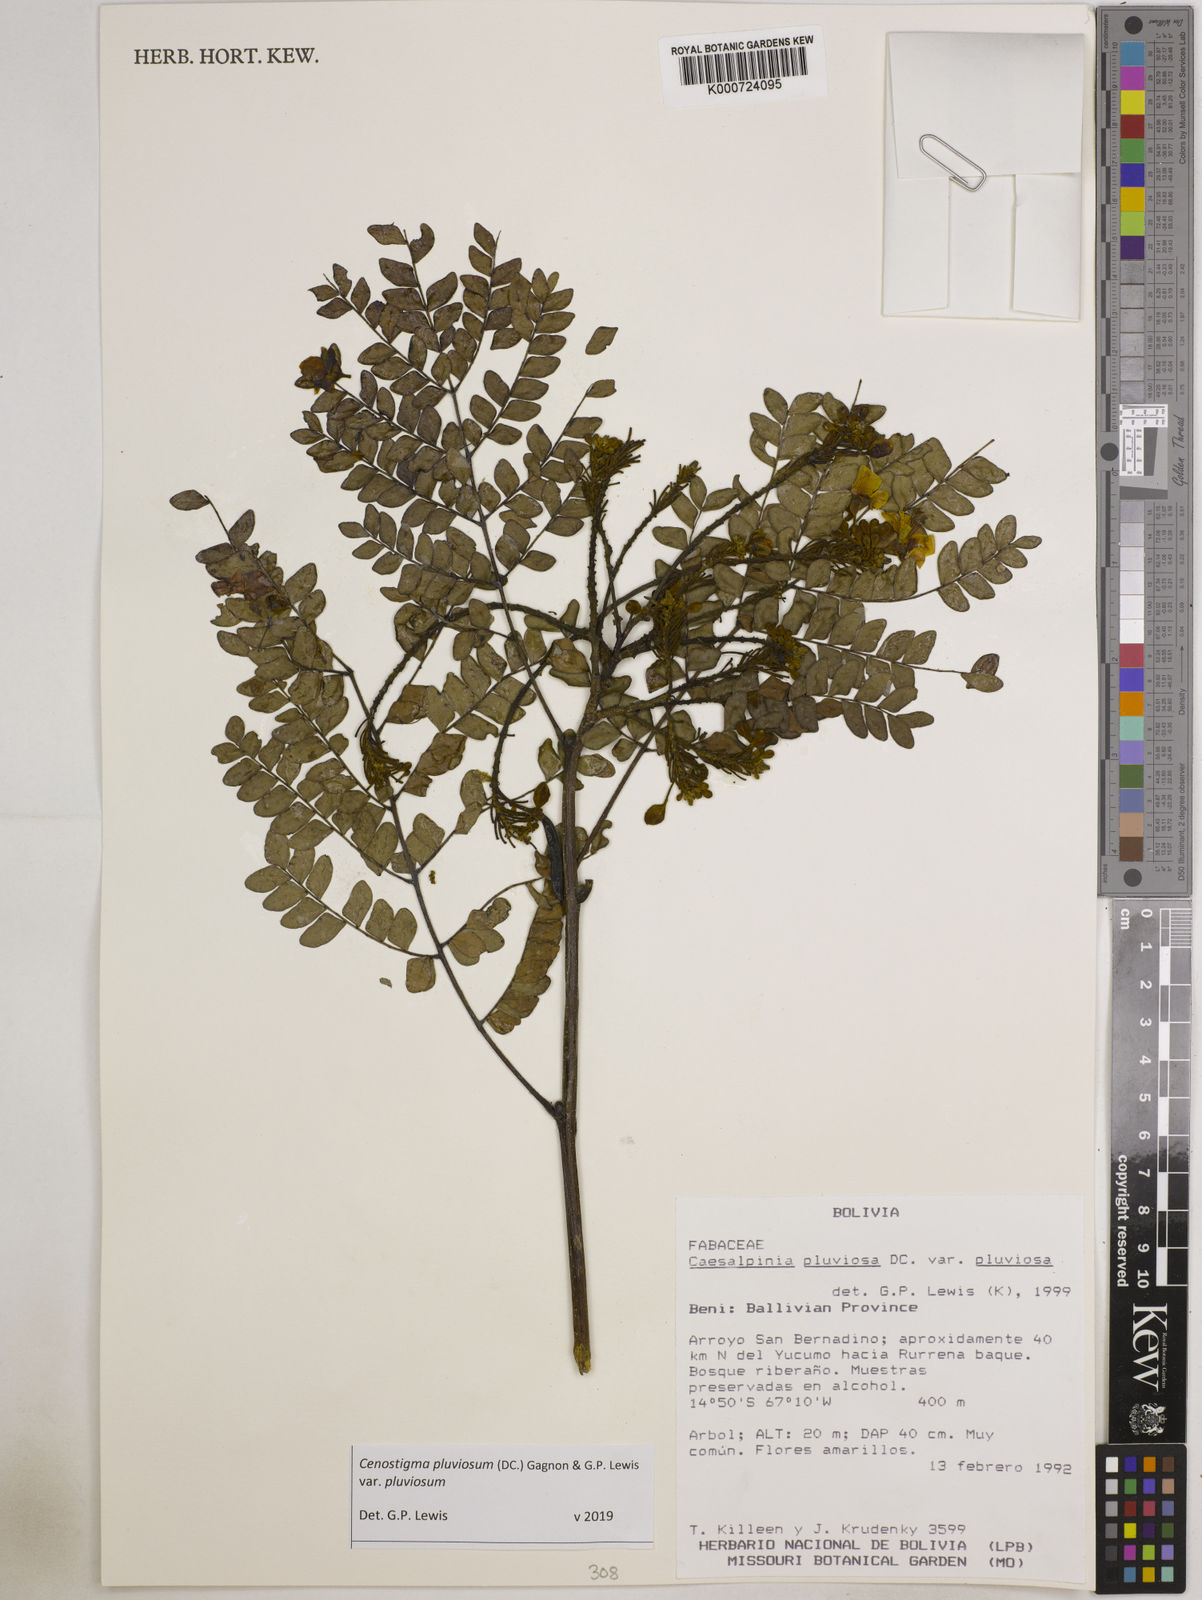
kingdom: Plantae
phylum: Tracheophyta
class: Magnoliopsida
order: Fabales
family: Fabaceae
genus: Cenostigma
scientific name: Cenostigma pluviosum
